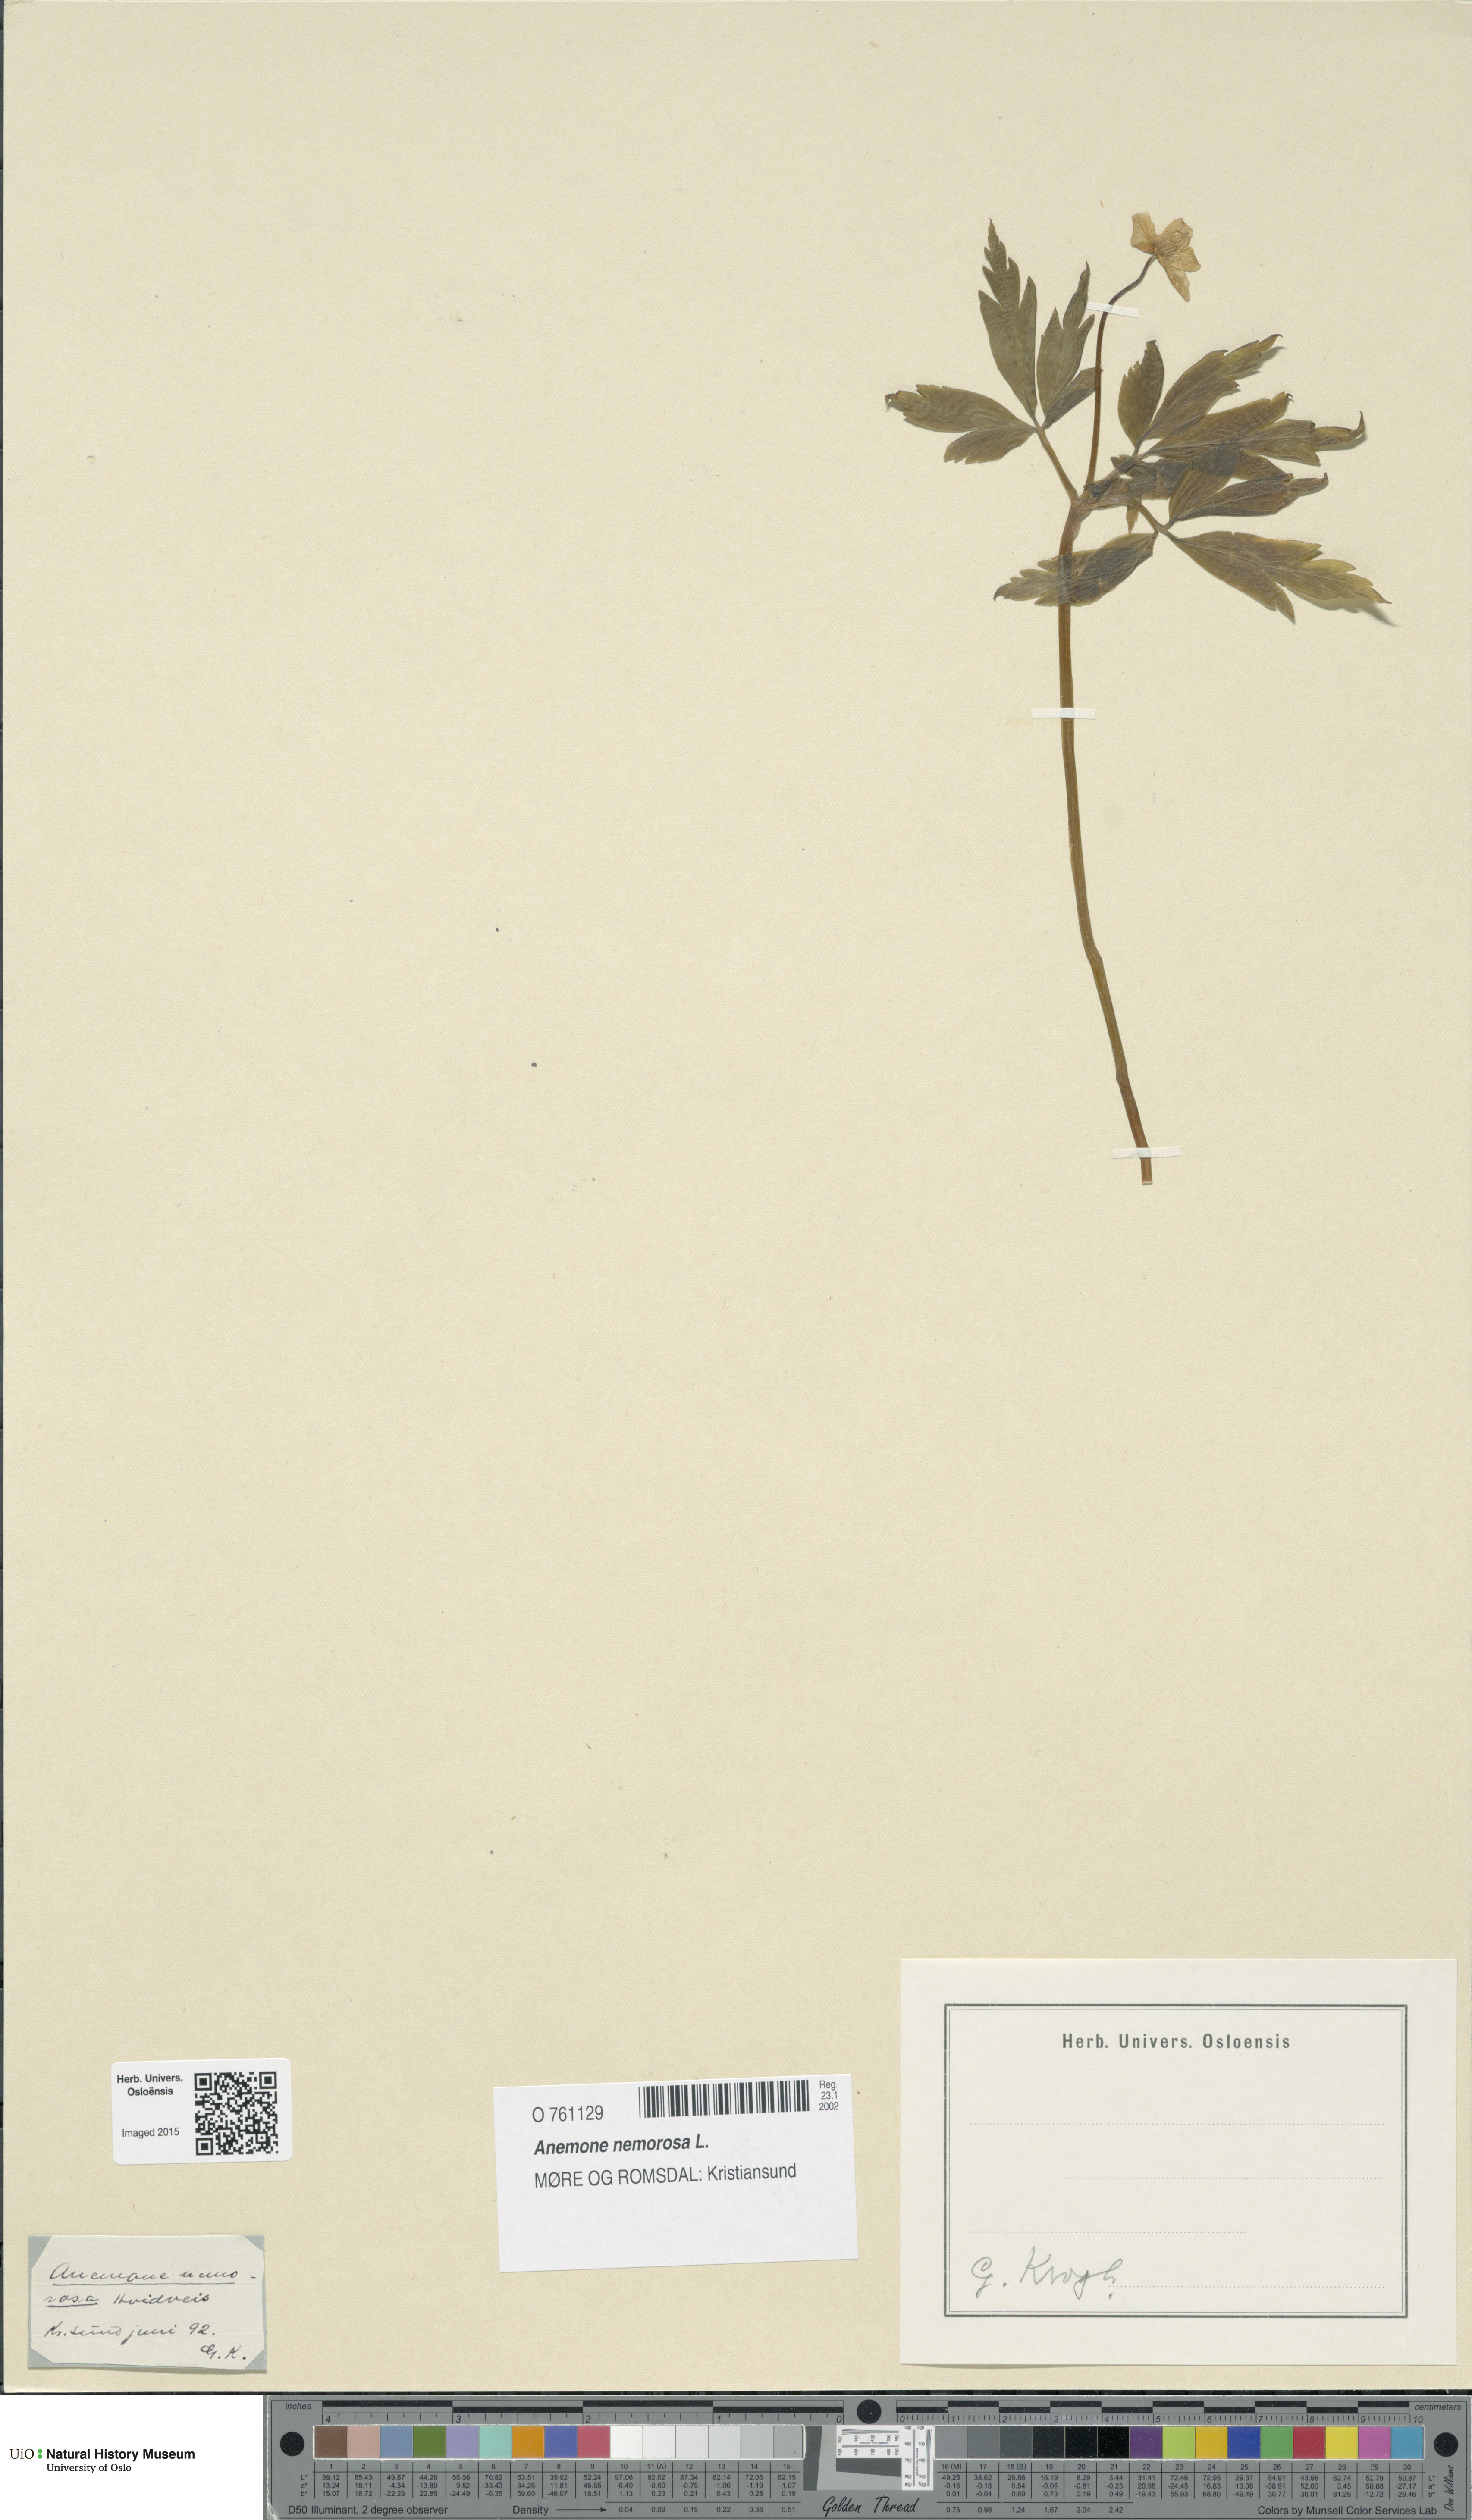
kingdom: Plantae
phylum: Tracheophyta
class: Magnoliopsida
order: Ranunculales
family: Ranunculaceae
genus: Anemone
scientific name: Anemone nemorosa
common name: Wood anemone
